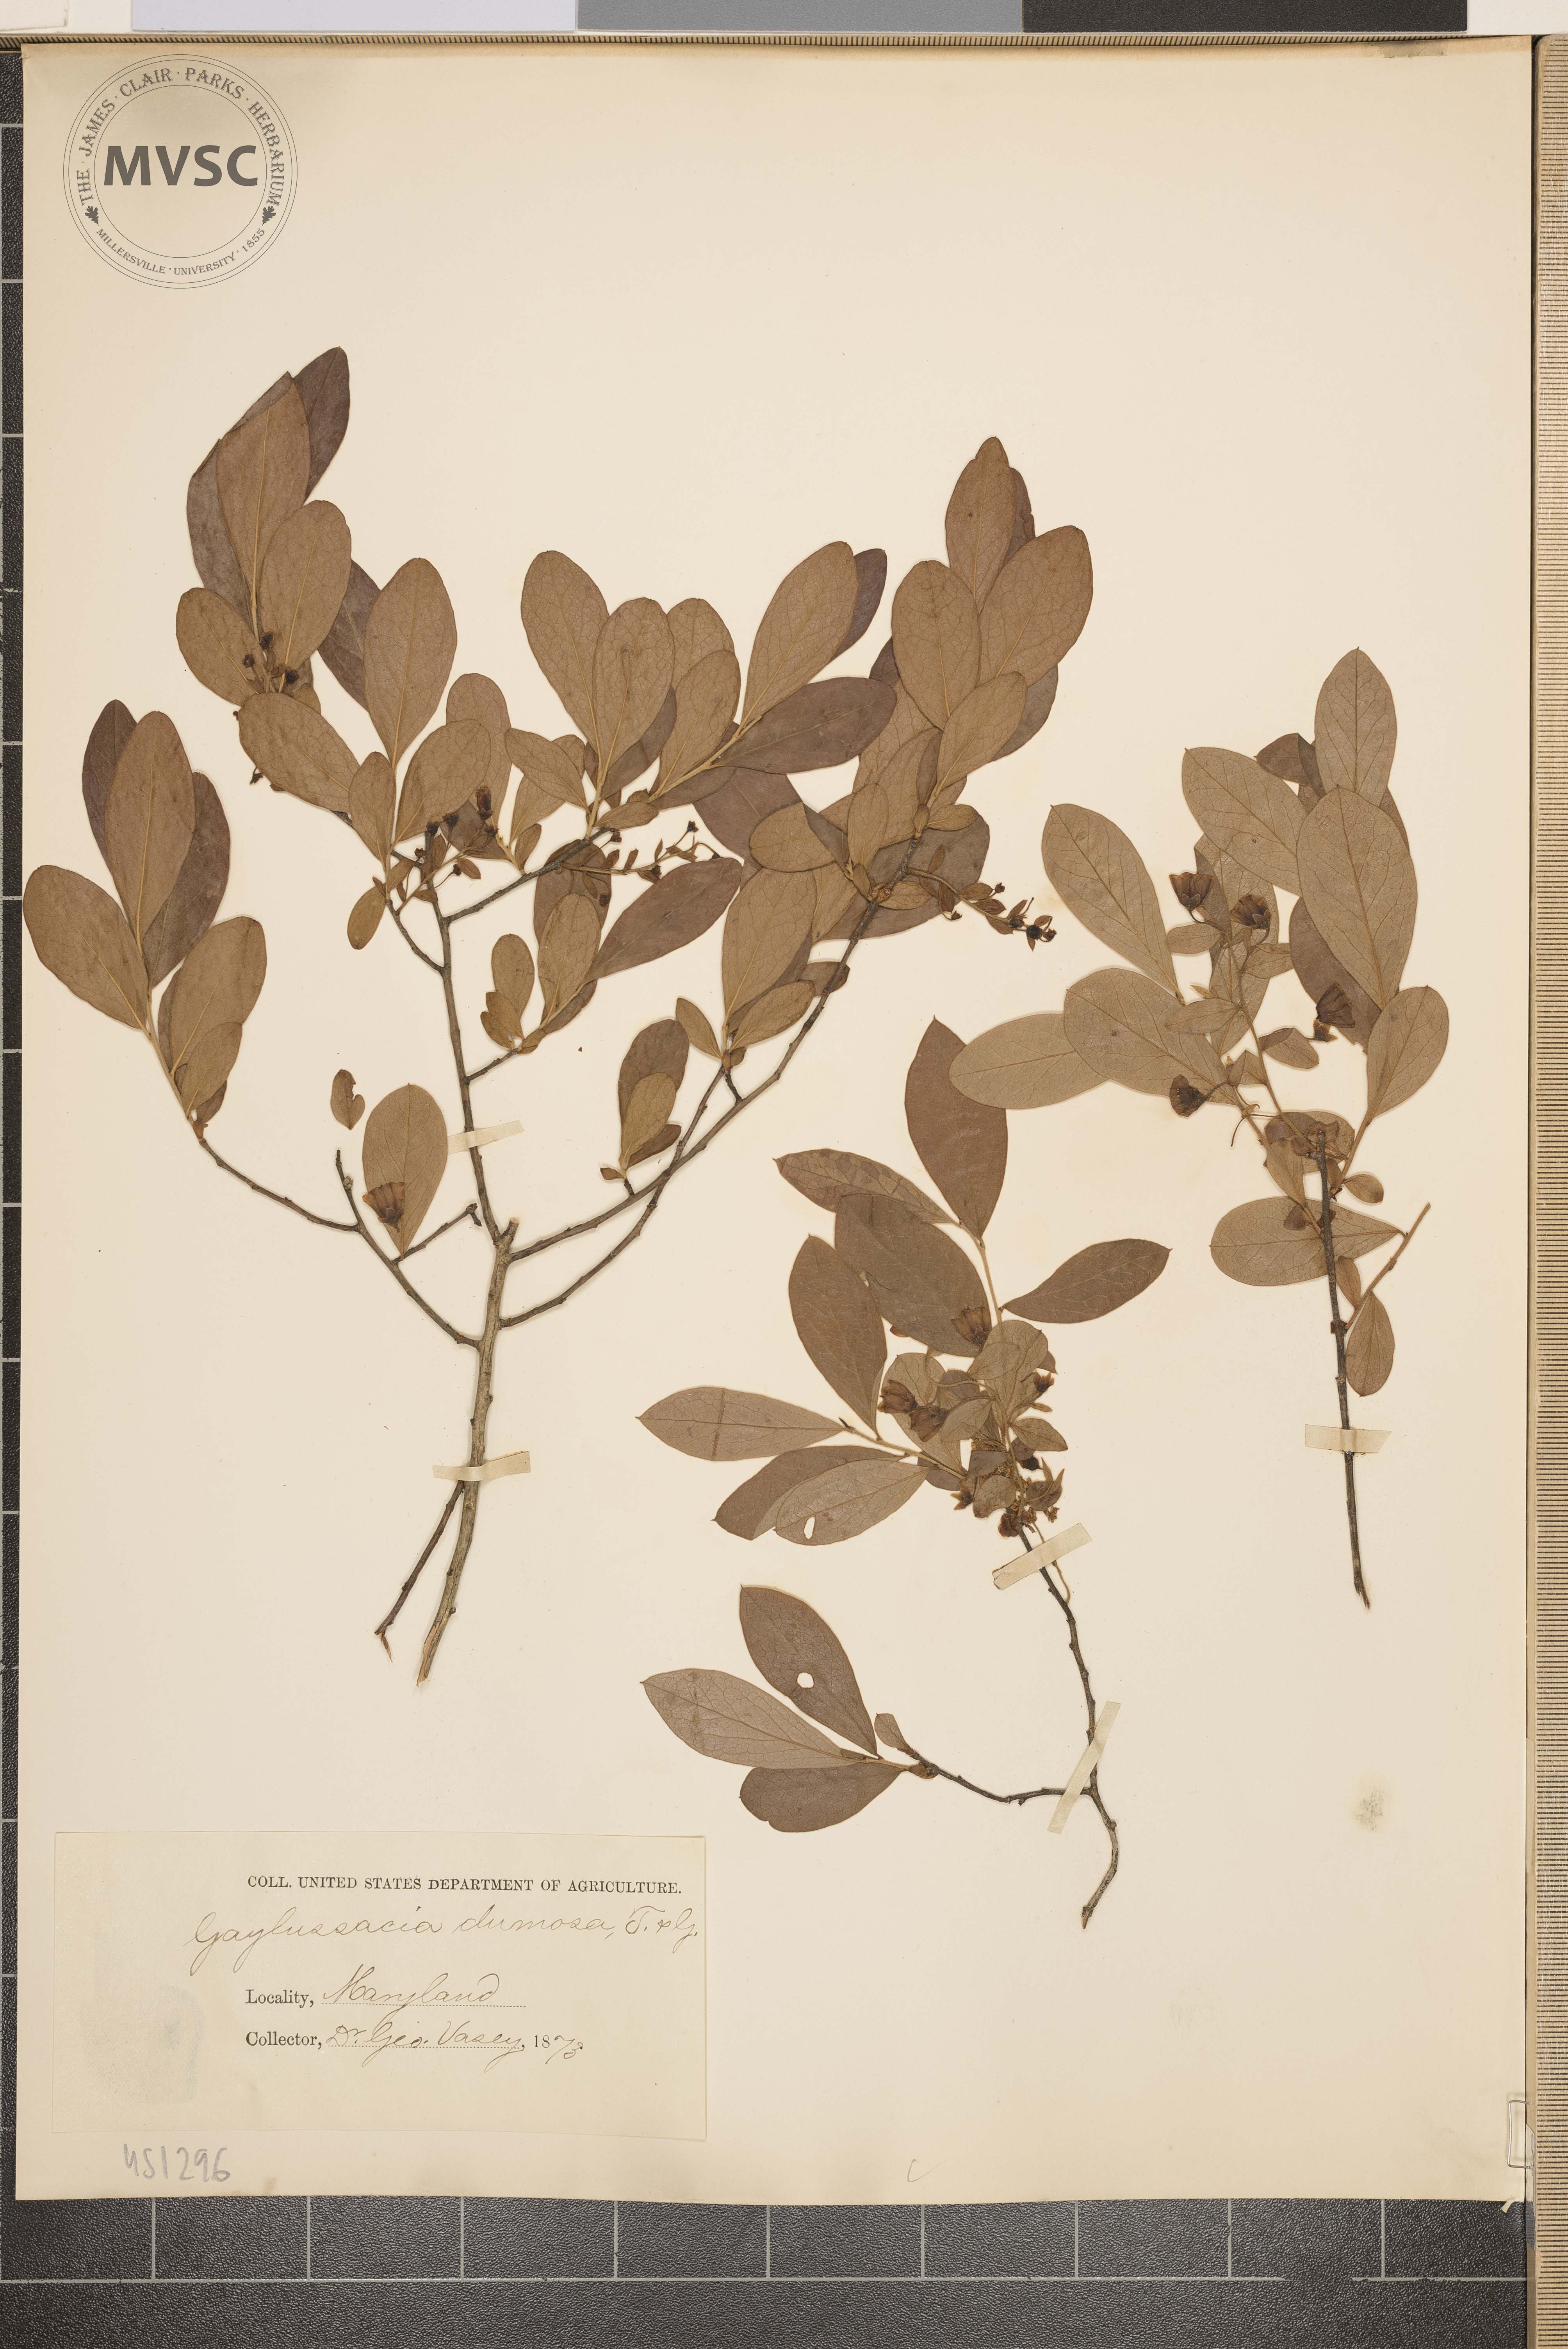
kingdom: Plantae
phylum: Tracheophyta
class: Magnoliopsida
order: Ericales
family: Ericaceae
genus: Gaylussacia
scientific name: Gaylussacia dumosa
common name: Dwarf huckleberry
